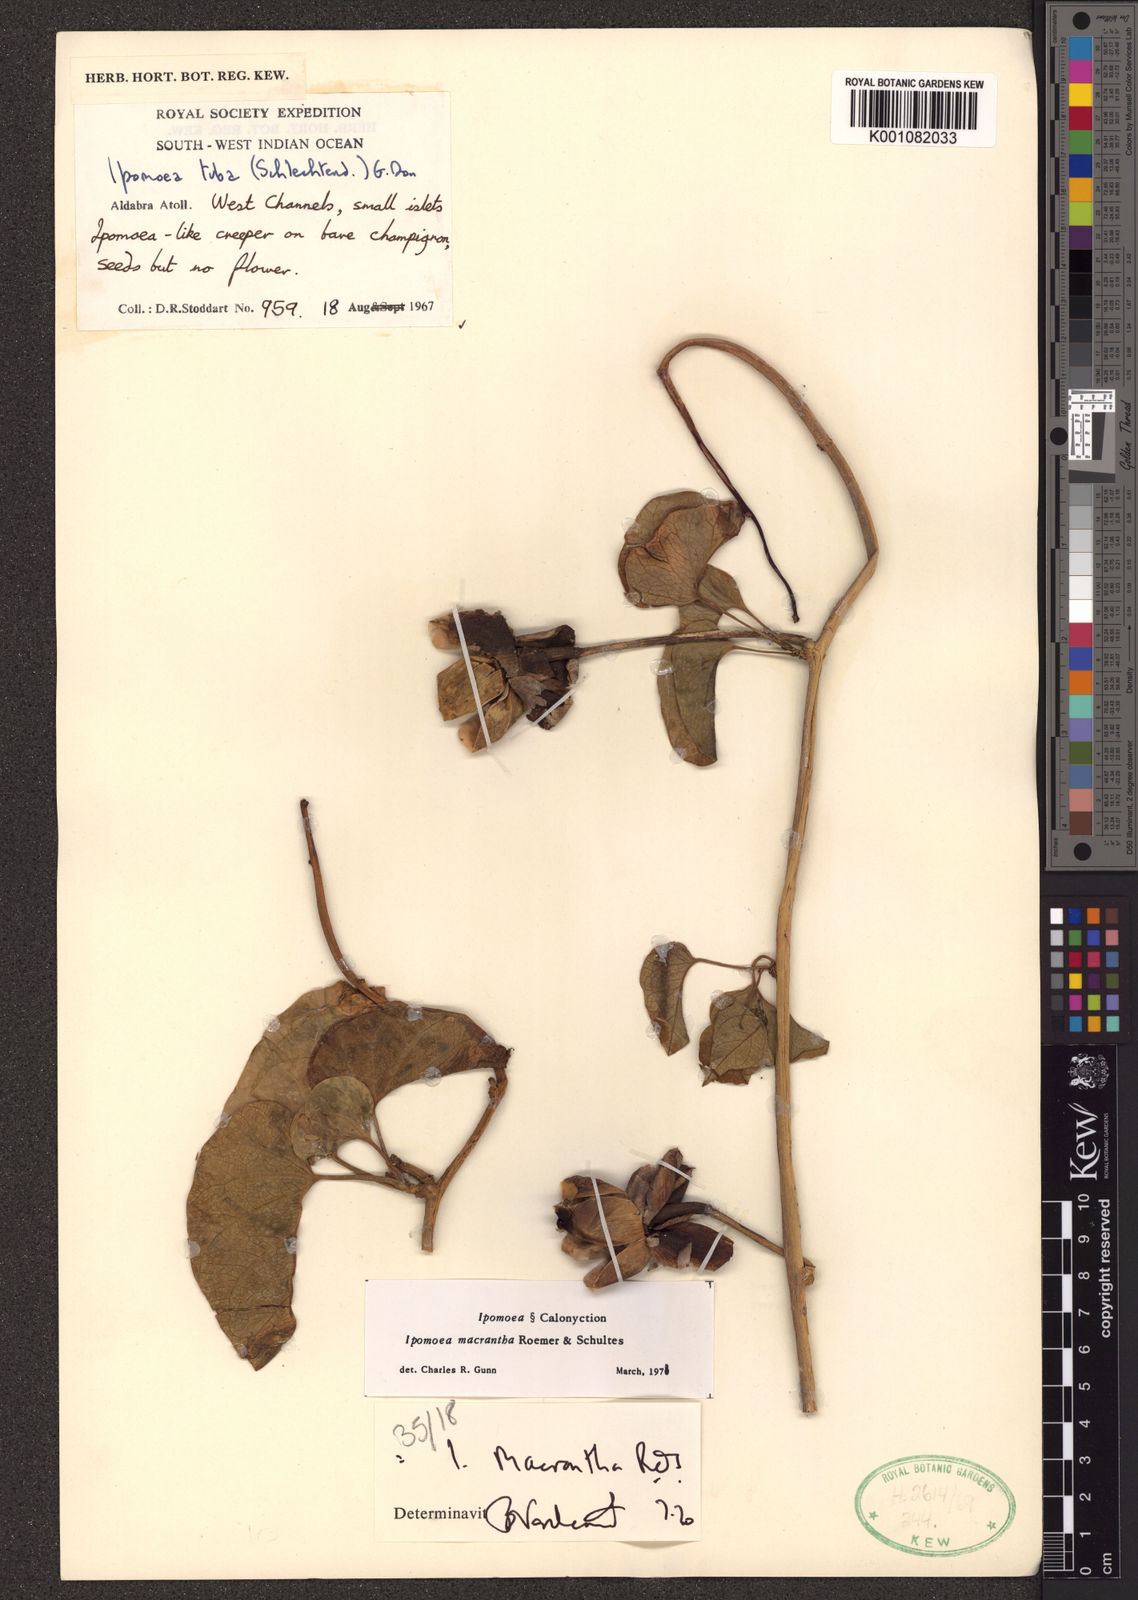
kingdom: Plantae
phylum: Tracheophyta
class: Magnoliopsida
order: Solanales
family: Convolvulaceae
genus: Ipomoea
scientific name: Ipomoea violacea
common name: Beach moonflower
